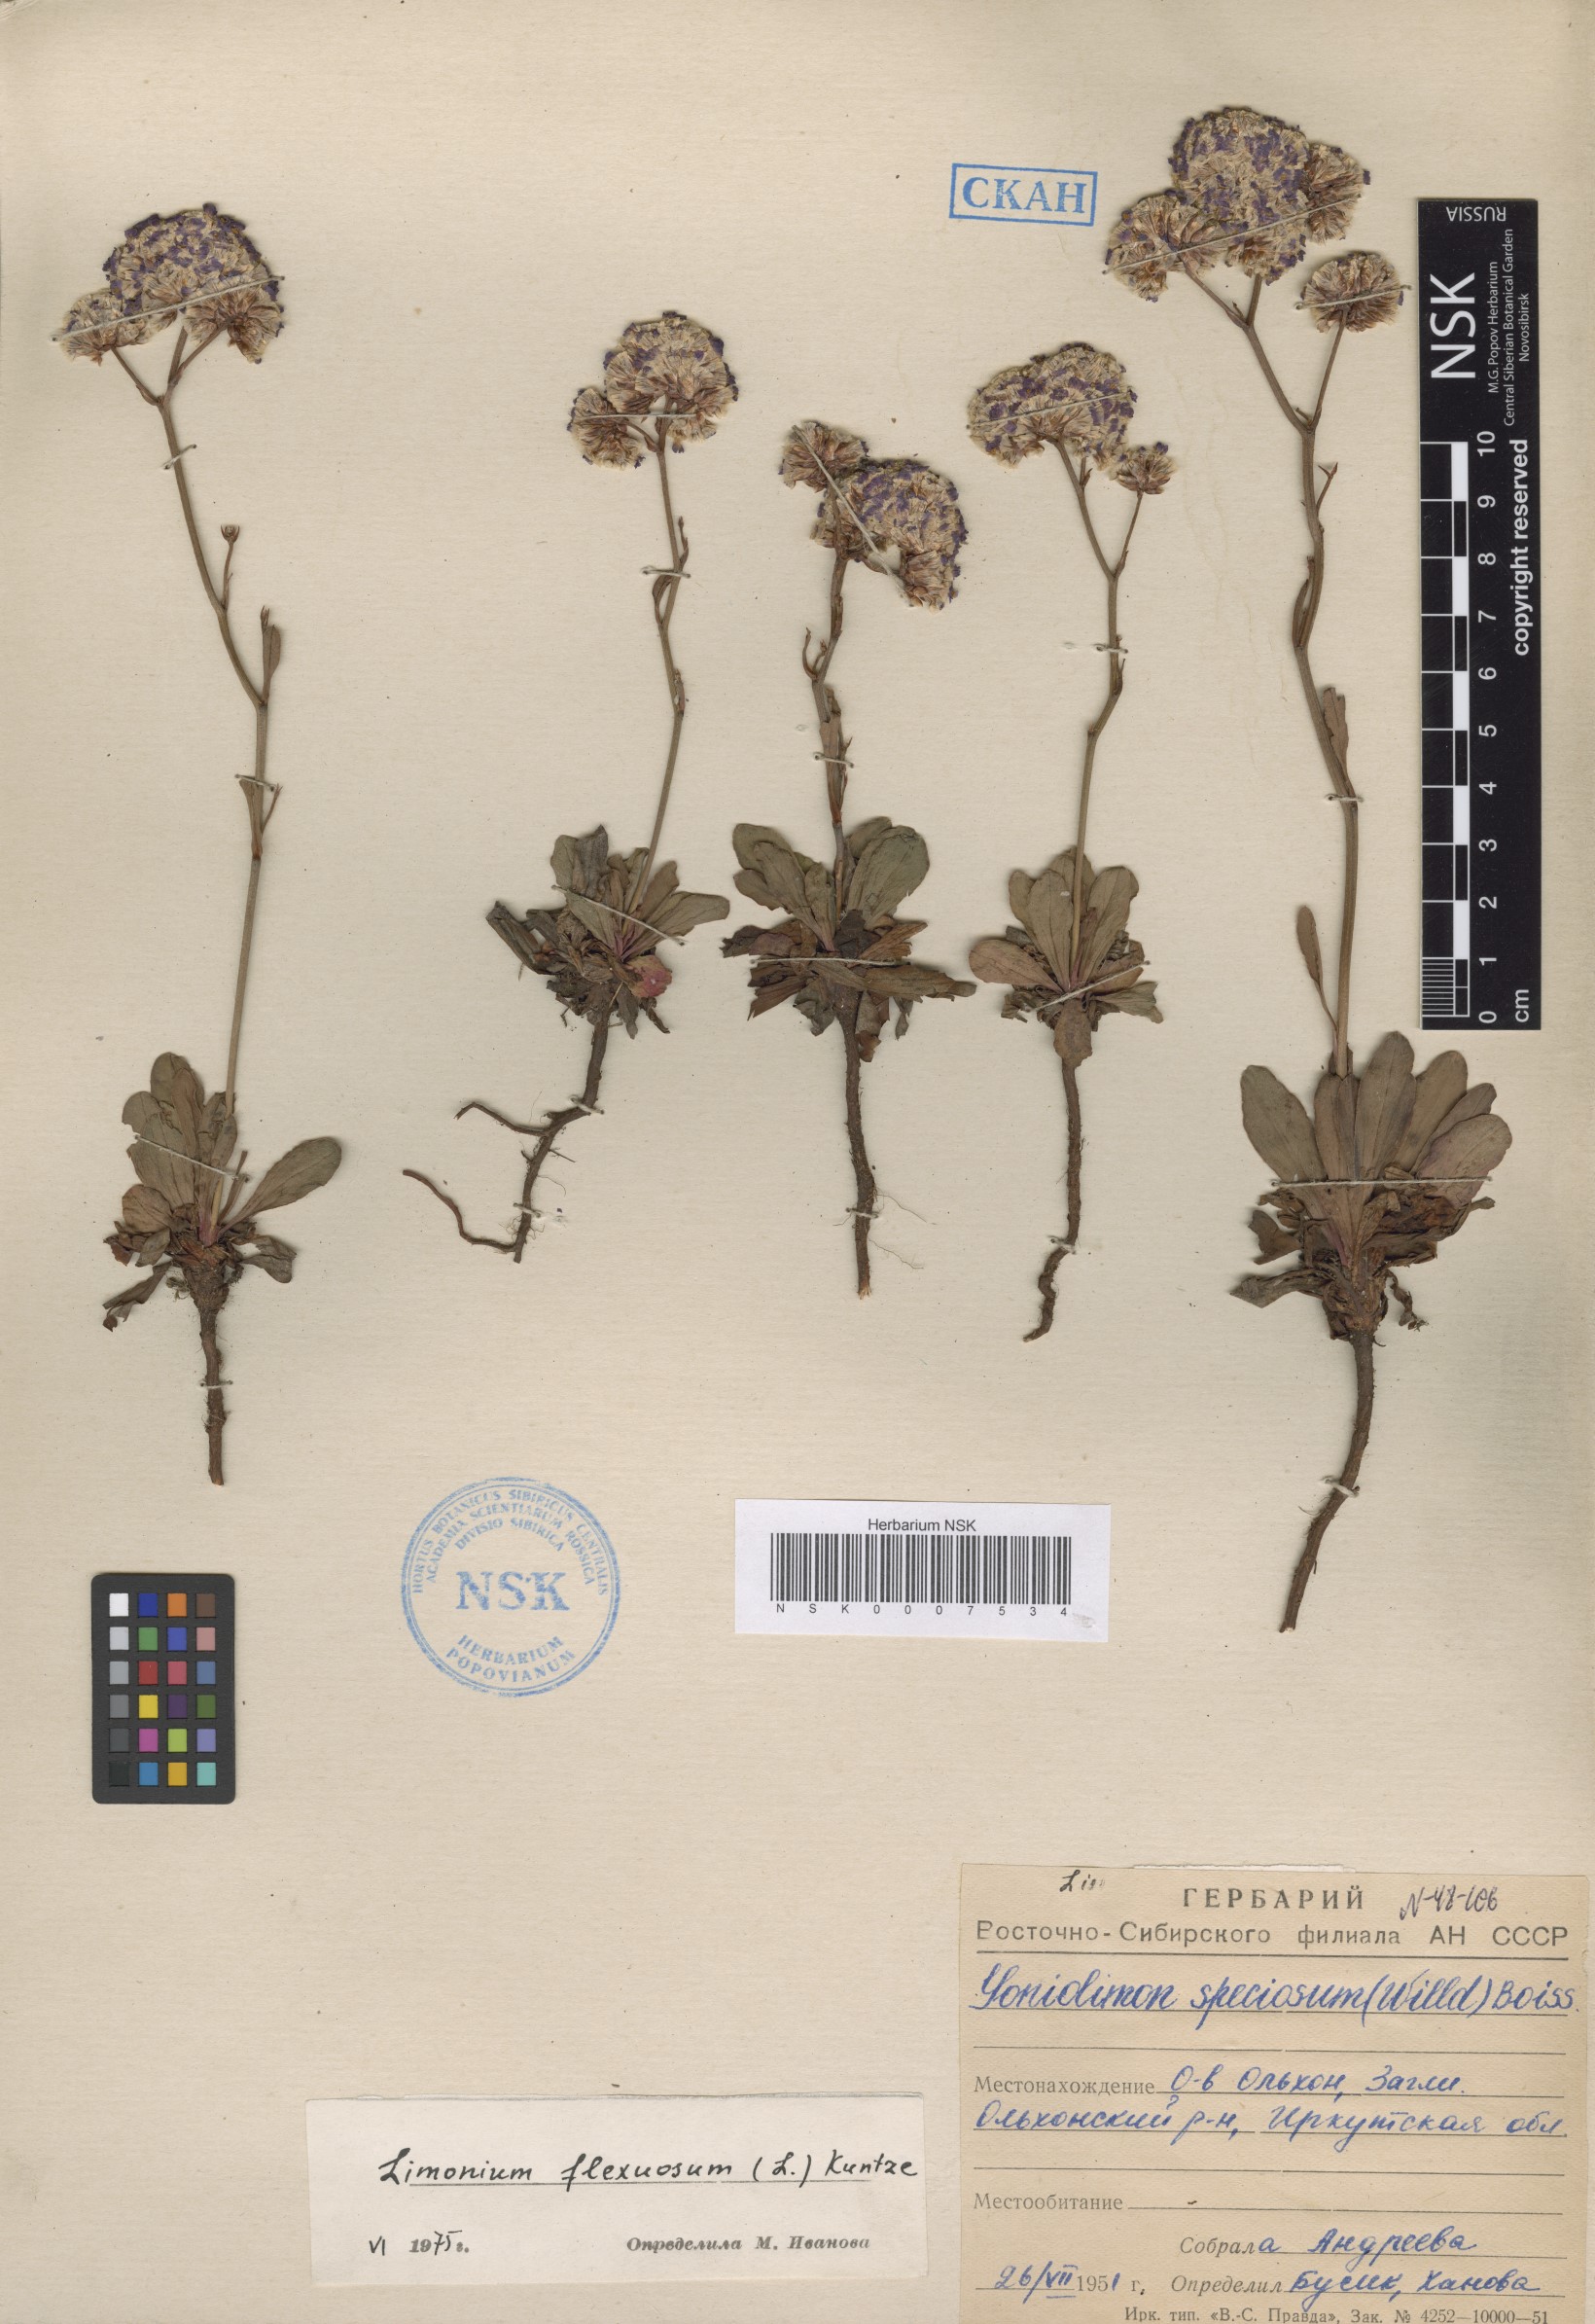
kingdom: Plantae
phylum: Tracheophyta
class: Magnoliopsida
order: Caryophyllales
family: Plumbaginaceae
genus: Limonium
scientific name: Limonium flexuosum
